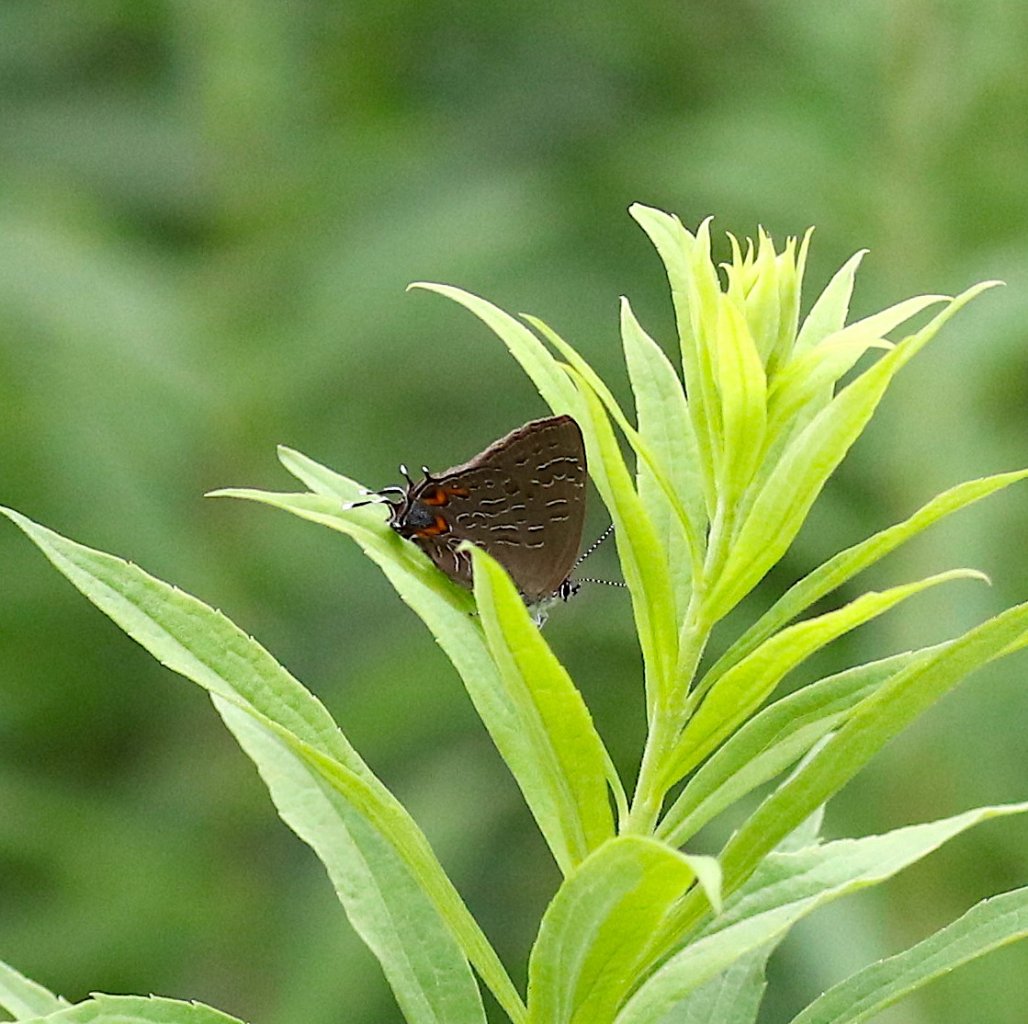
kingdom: Animalia
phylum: Arthropoda
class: Insecta
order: Lepidoptera
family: Lycaenidae
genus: Satyrium
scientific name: Satyrium liparops
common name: Striped Hairstreak
